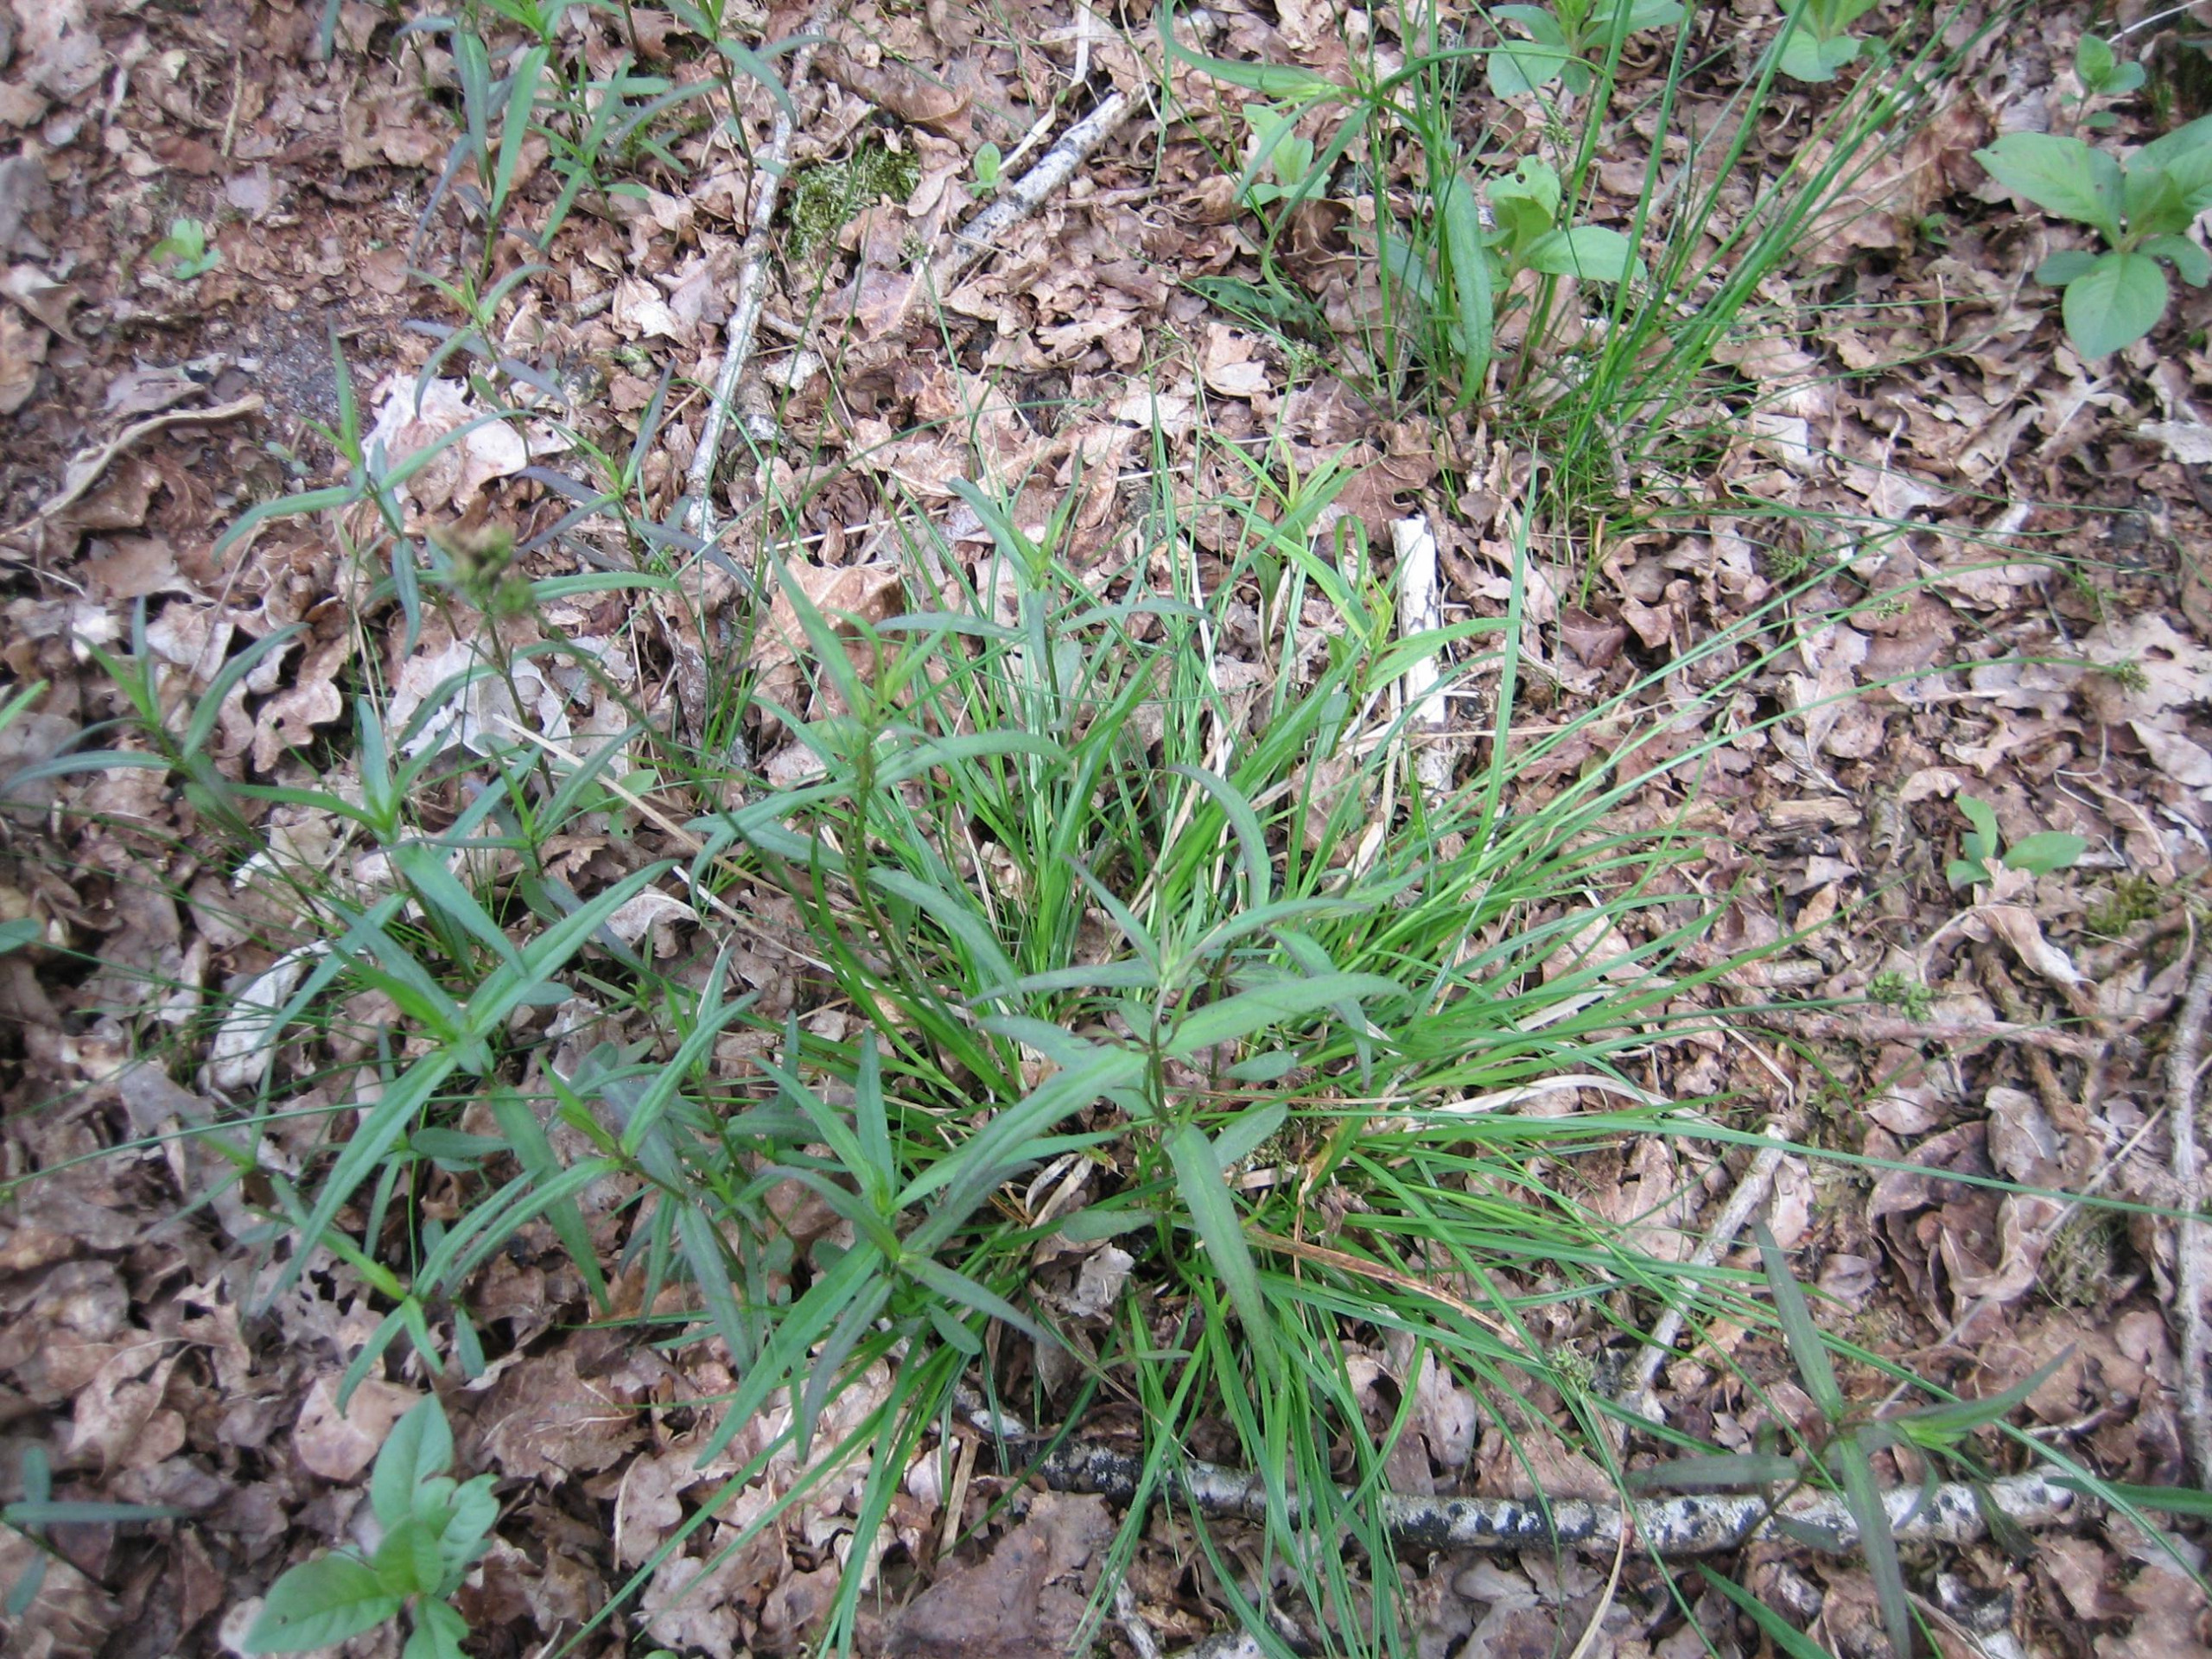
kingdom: Plantae
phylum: Tracheophyta
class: Liliopsida
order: Poales
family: Cyperaceae
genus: Carex
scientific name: Carex pilulifera
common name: Pille-star
